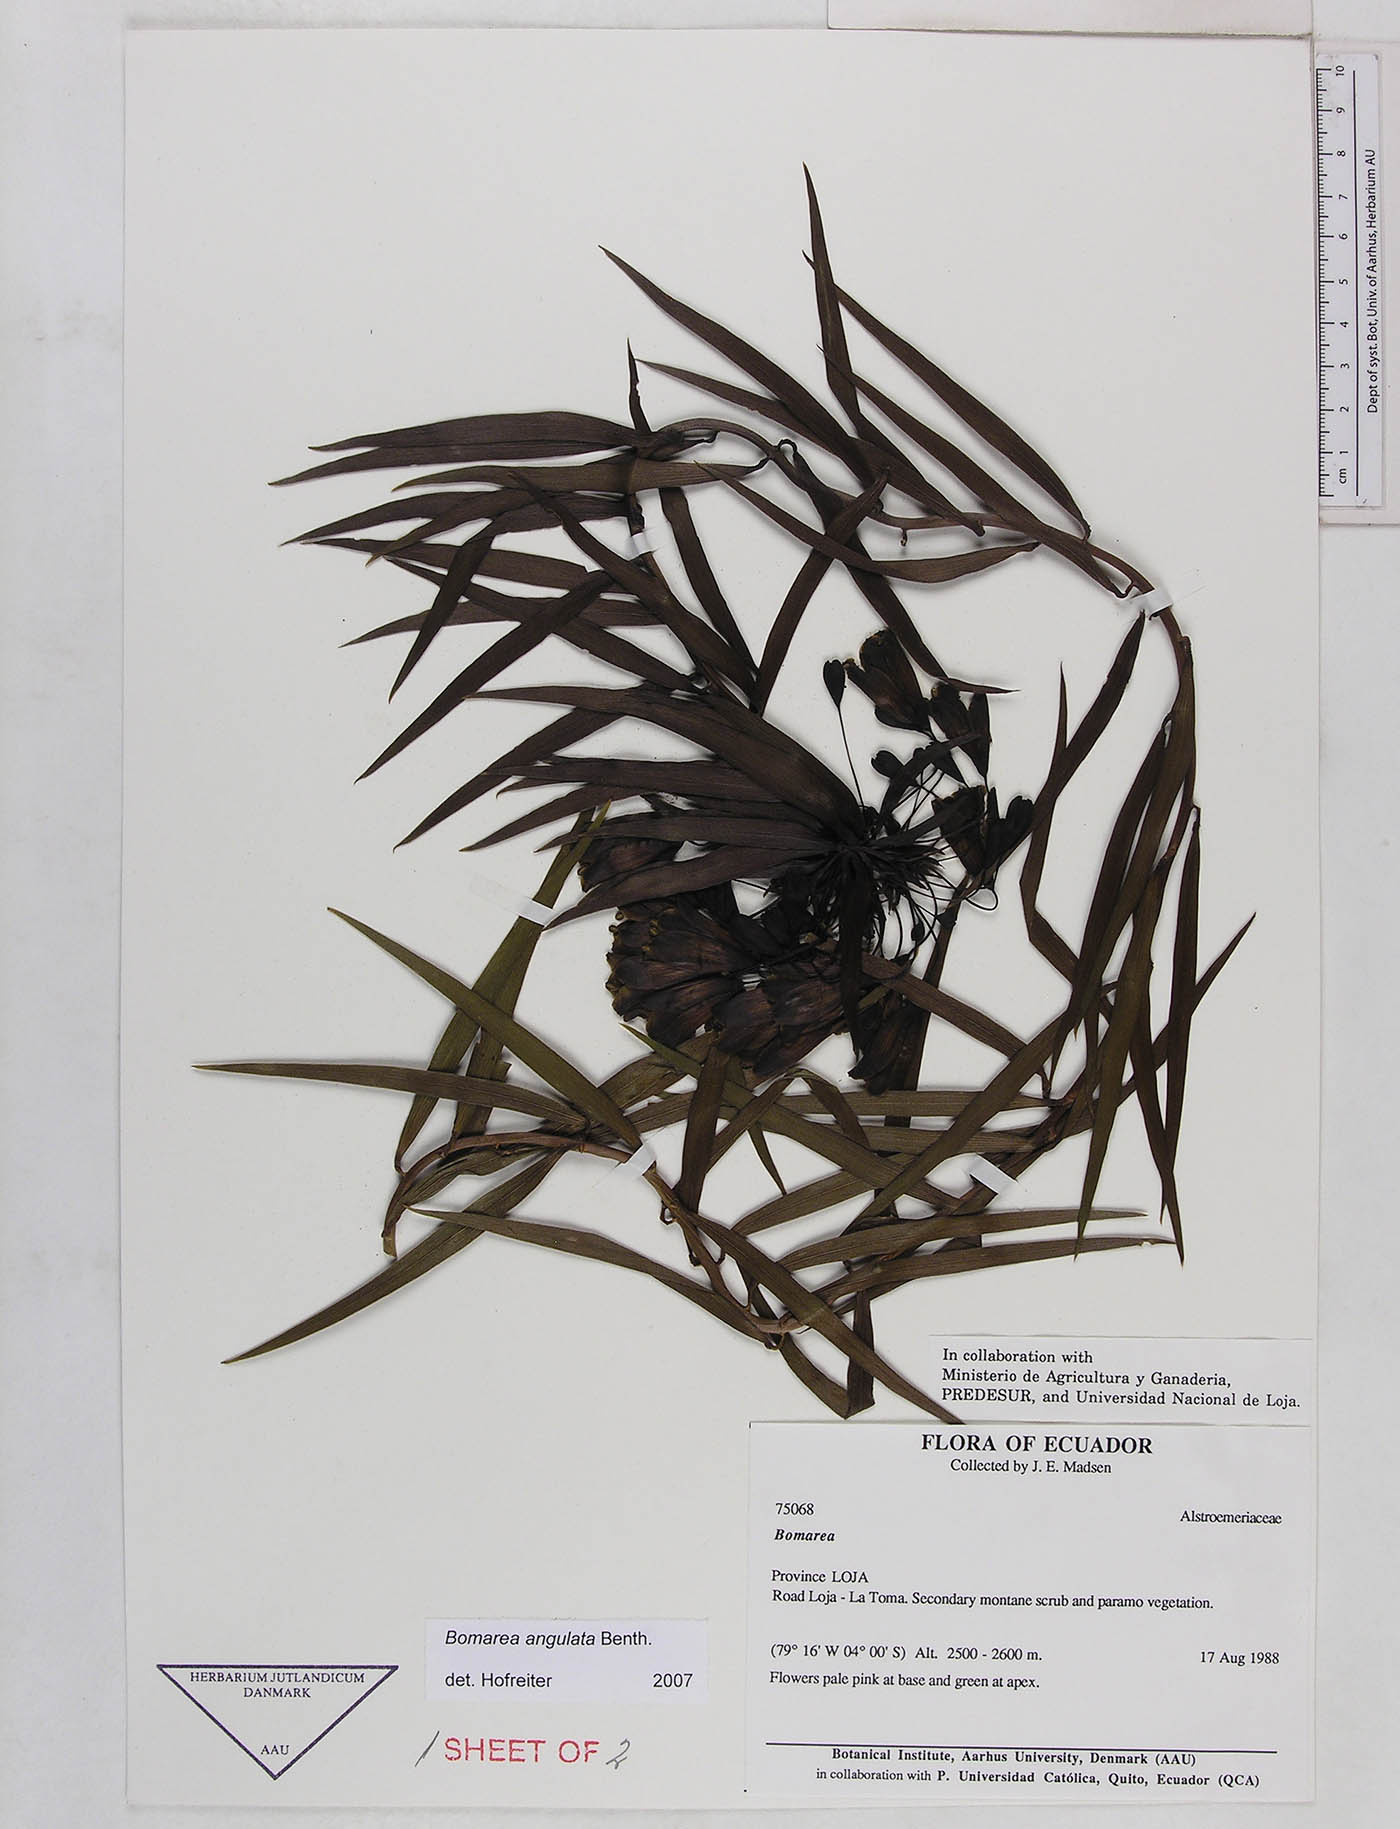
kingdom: Plantae
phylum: Tracheophyta
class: Liliopsida
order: Liliales
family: Alstroemeriaceae
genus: Bomarea
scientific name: Bomarea angulata
